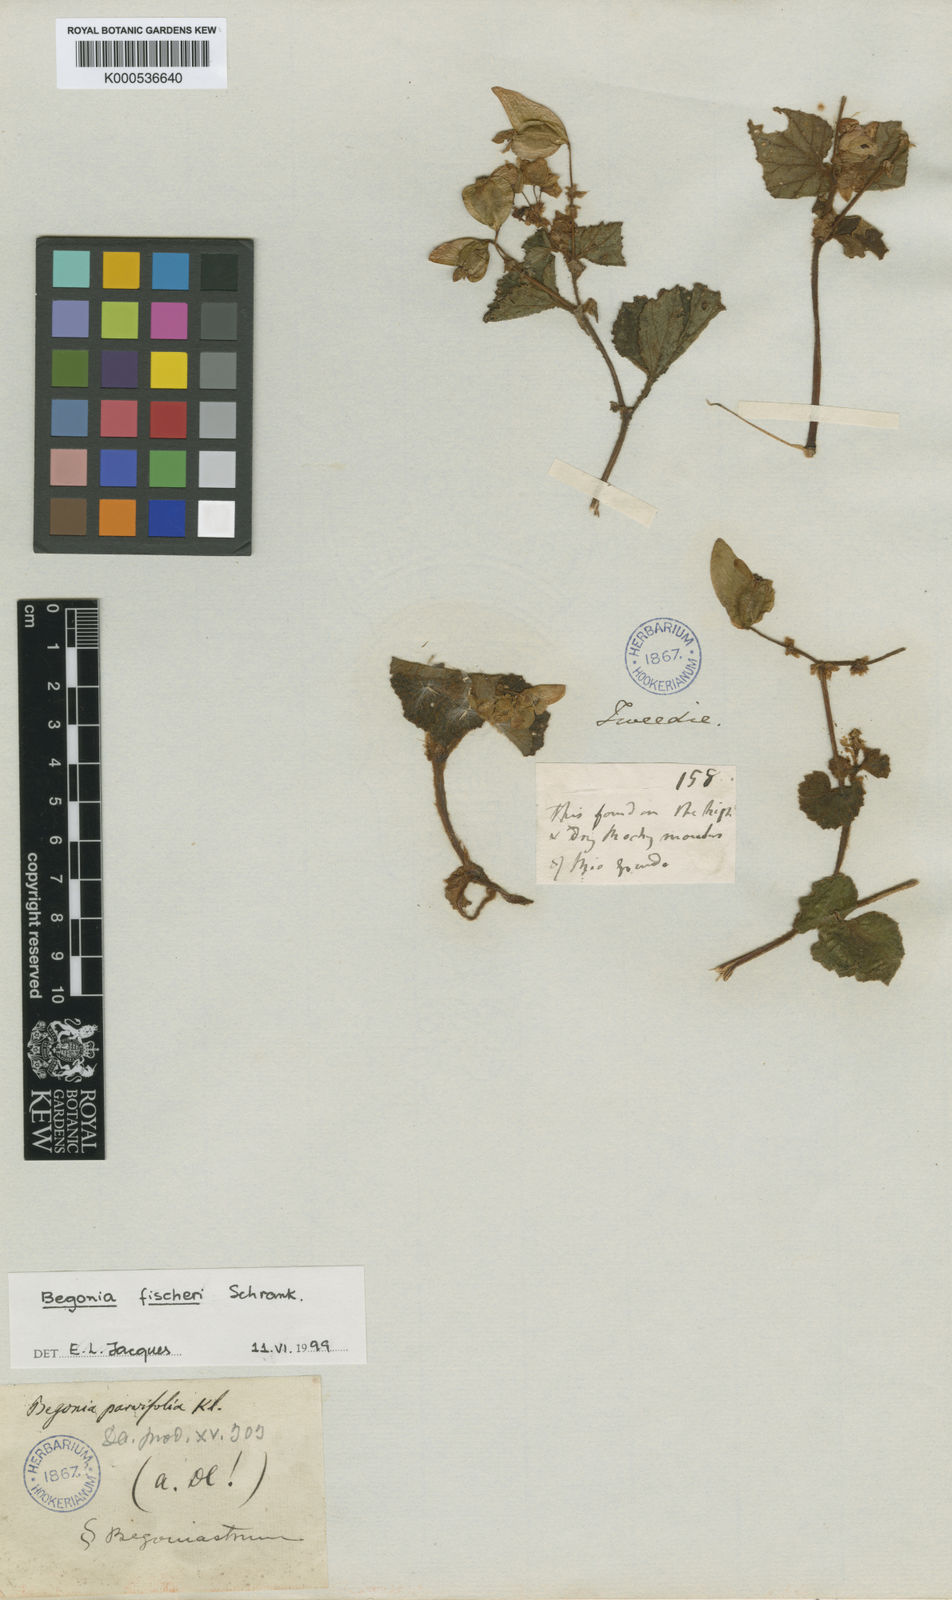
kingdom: Plantae
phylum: Tracheophyta
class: Magnoliopsida
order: Cucurbitales
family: Begoniaceae
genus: Begonia
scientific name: Begonia fischeri
